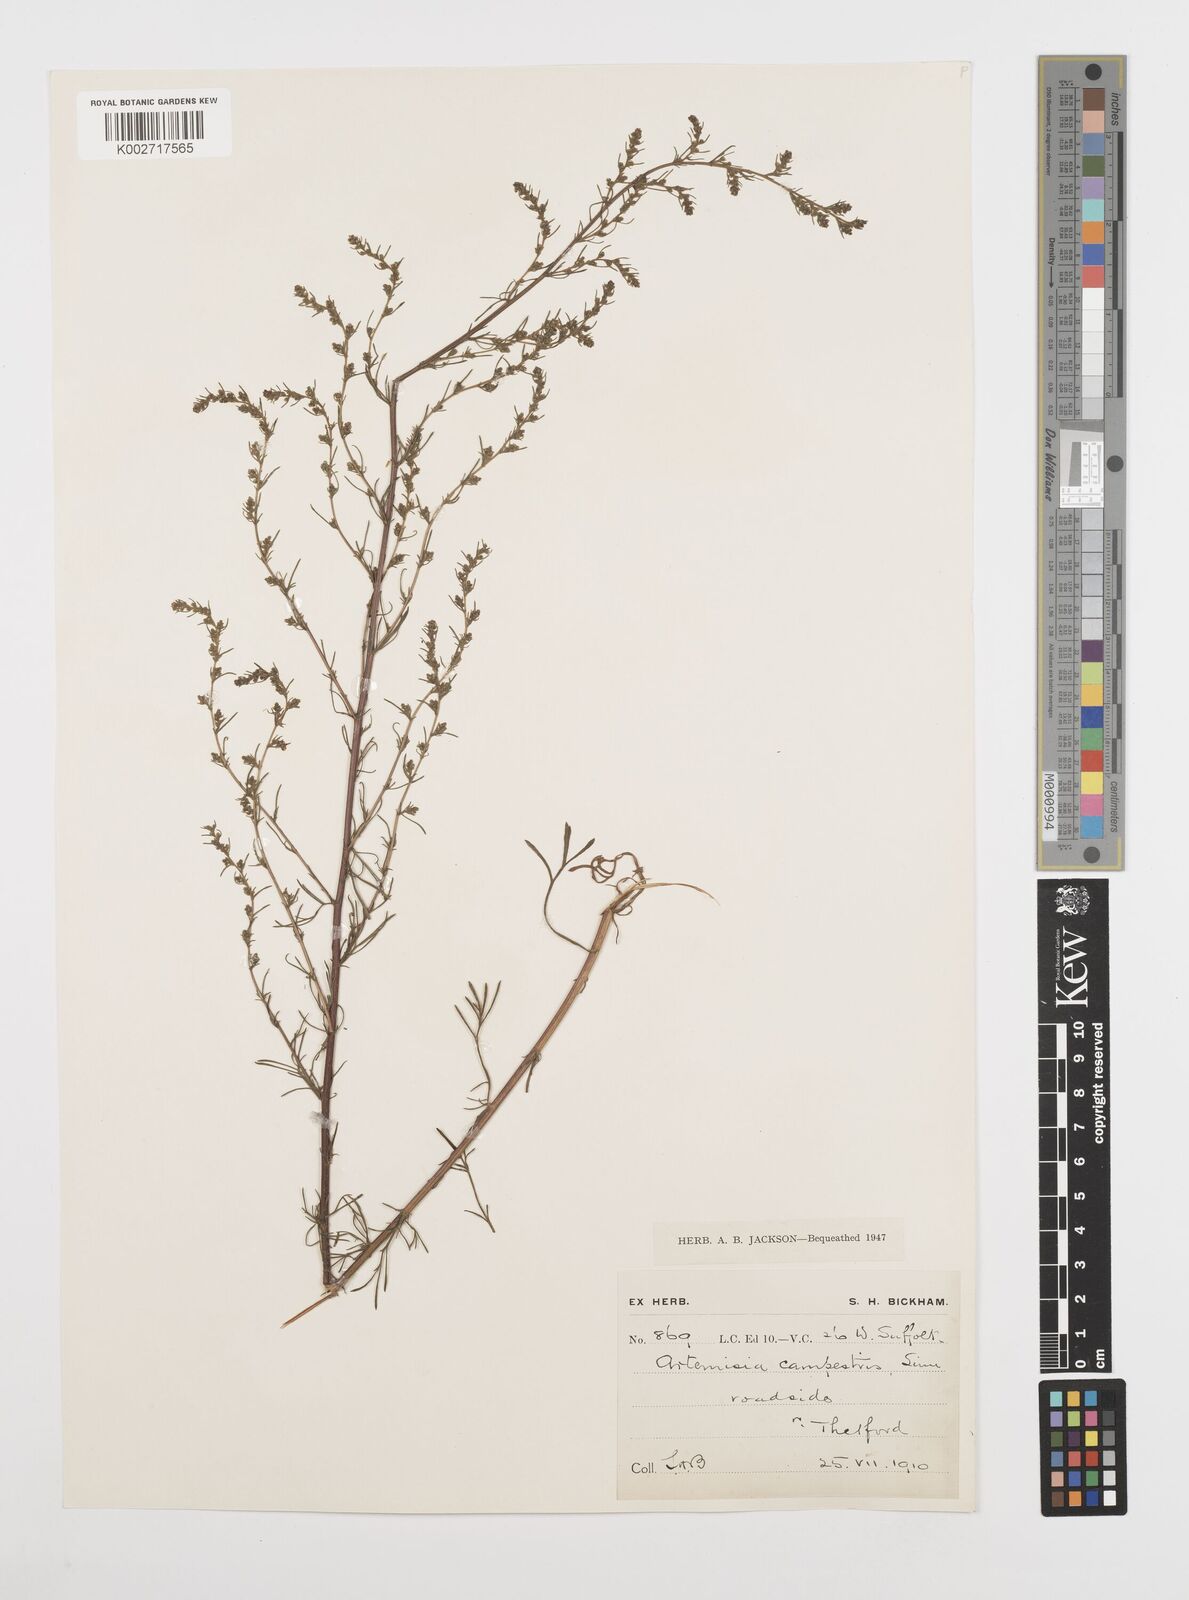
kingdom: Plantae
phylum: Tracheophyta
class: Magnoliopsida
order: Asterales
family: Asteraceae
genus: Artemisia
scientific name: Artemisia campestris
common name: Field wormwood
